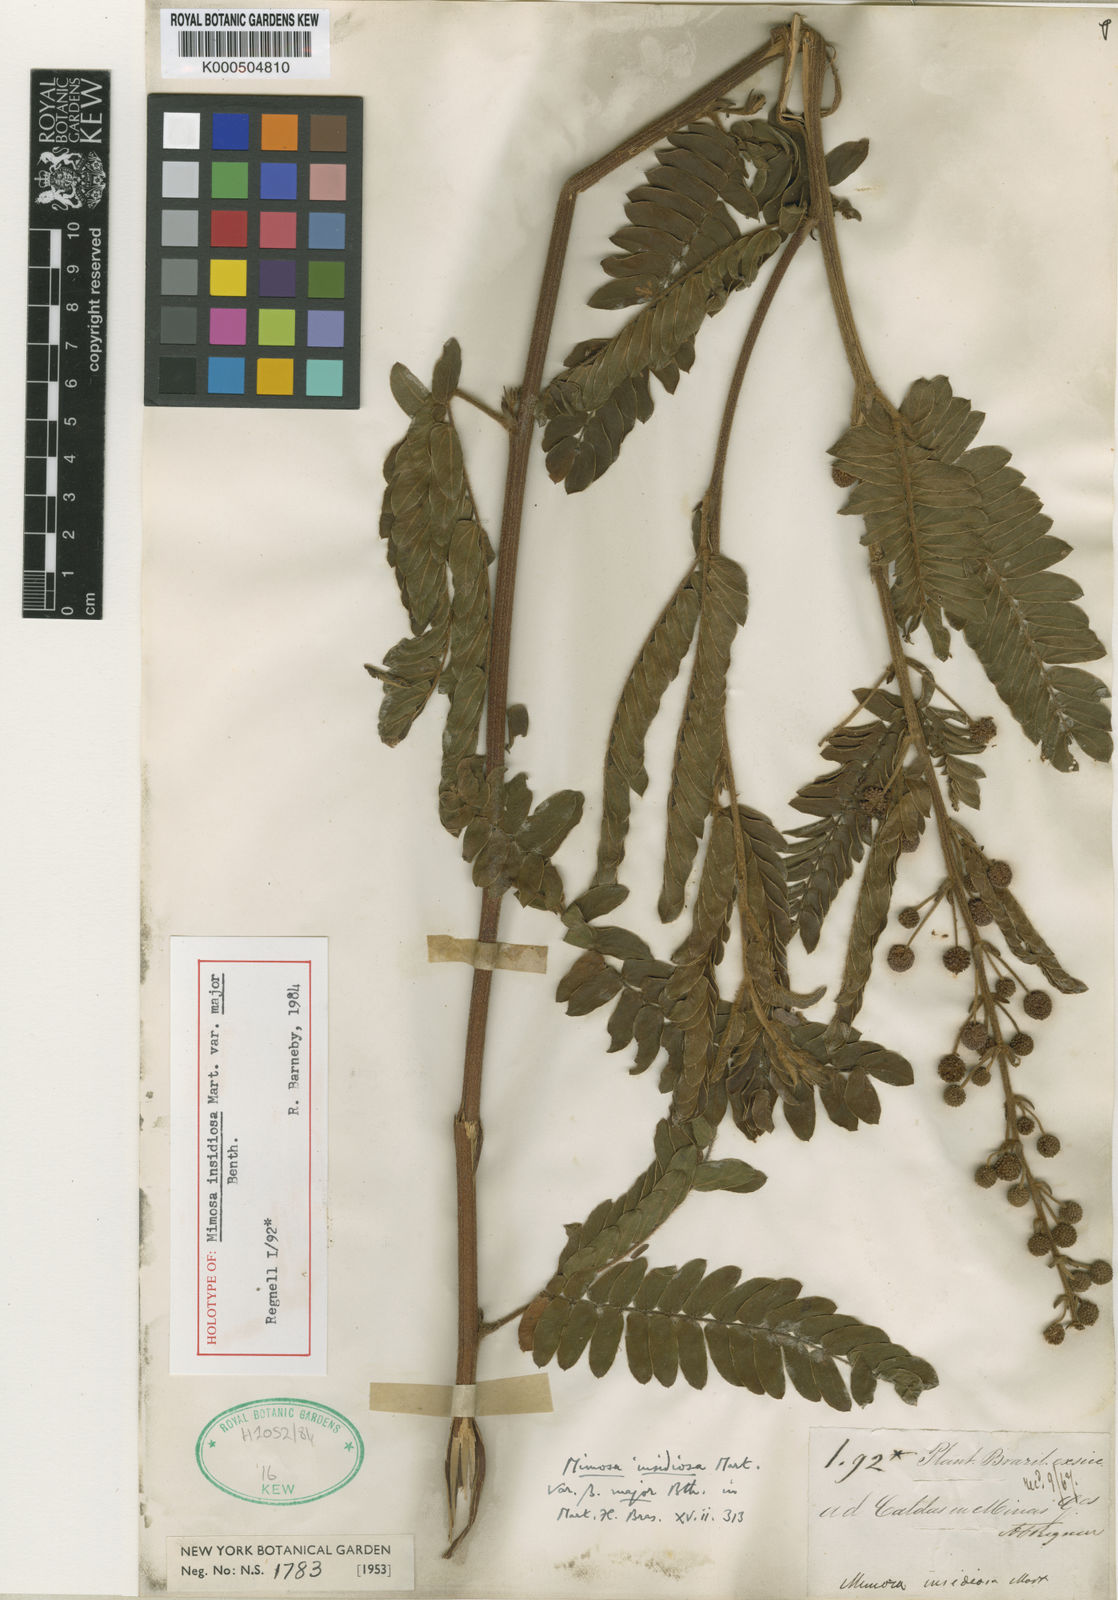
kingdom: Plantae
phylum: Tracheophyta
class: Magnoliopsida
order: Fabales
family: Fabaceae
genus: Mimosa
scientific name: Mimosa insidiosa
